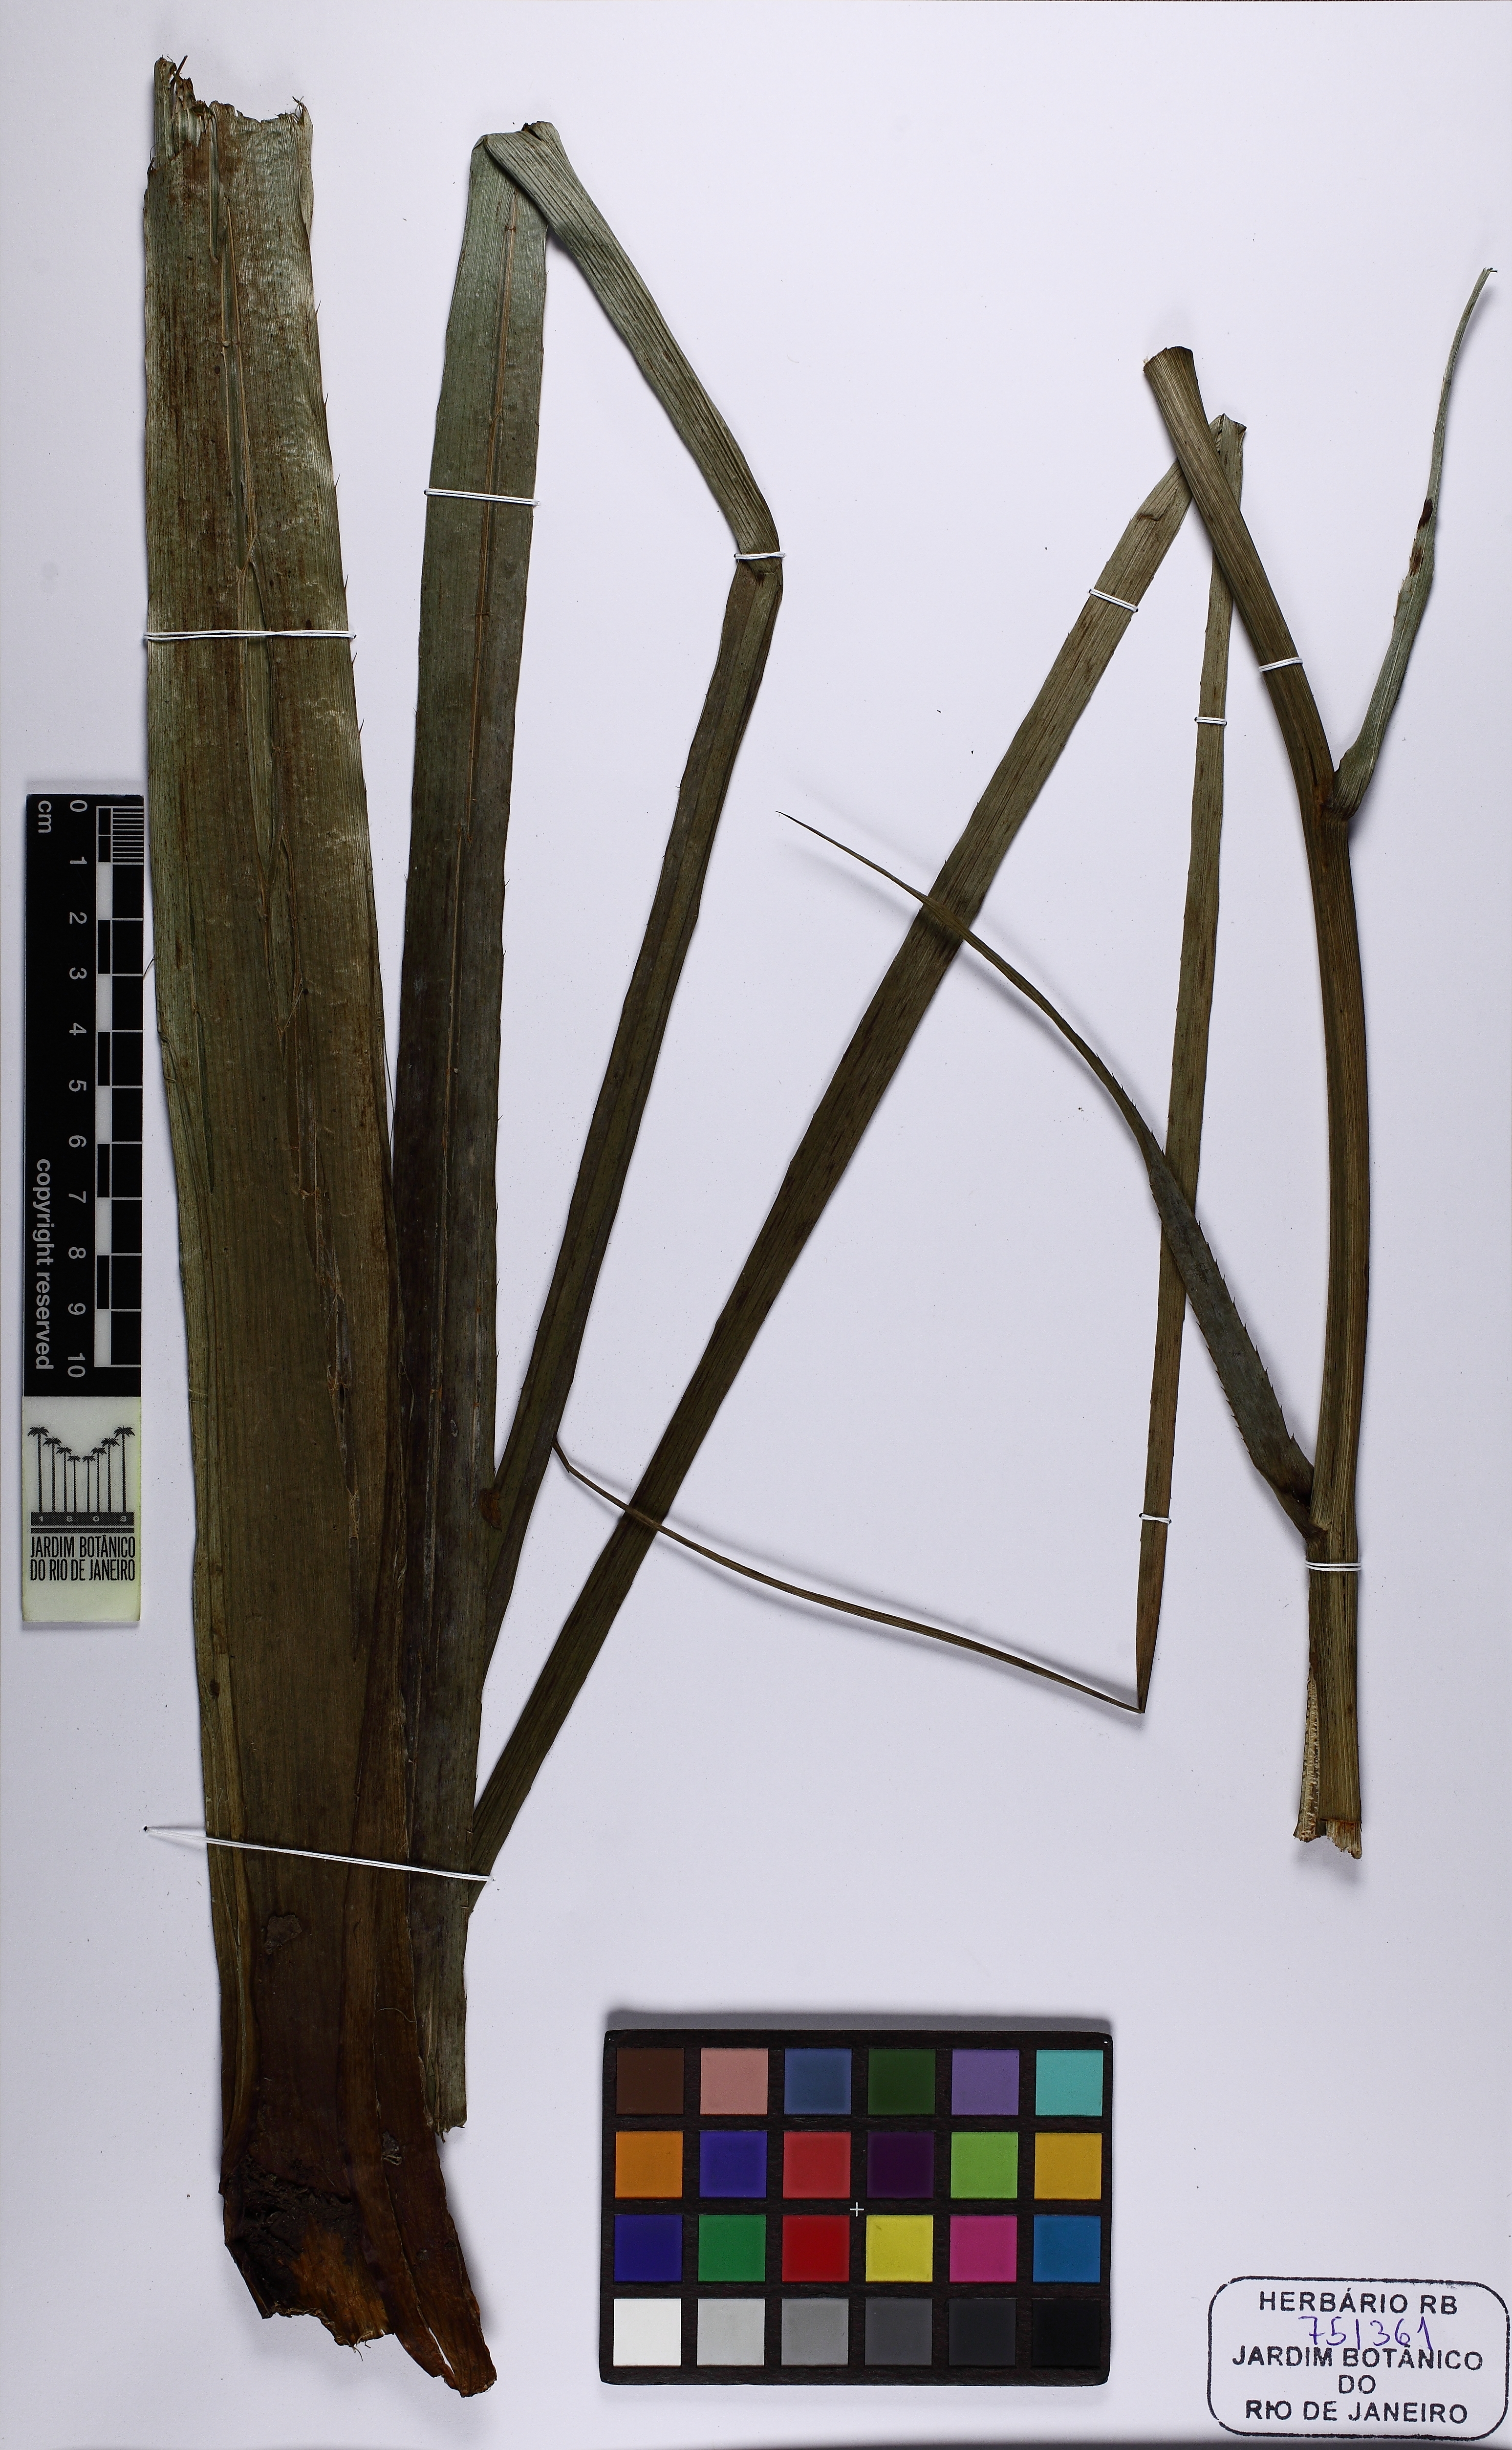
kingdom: Plantae
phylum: Tracheophyta
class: Magnoliopsida
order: Apiales
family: Apiaceae
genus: Eryngium
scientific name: Eryngium pandanifolium
